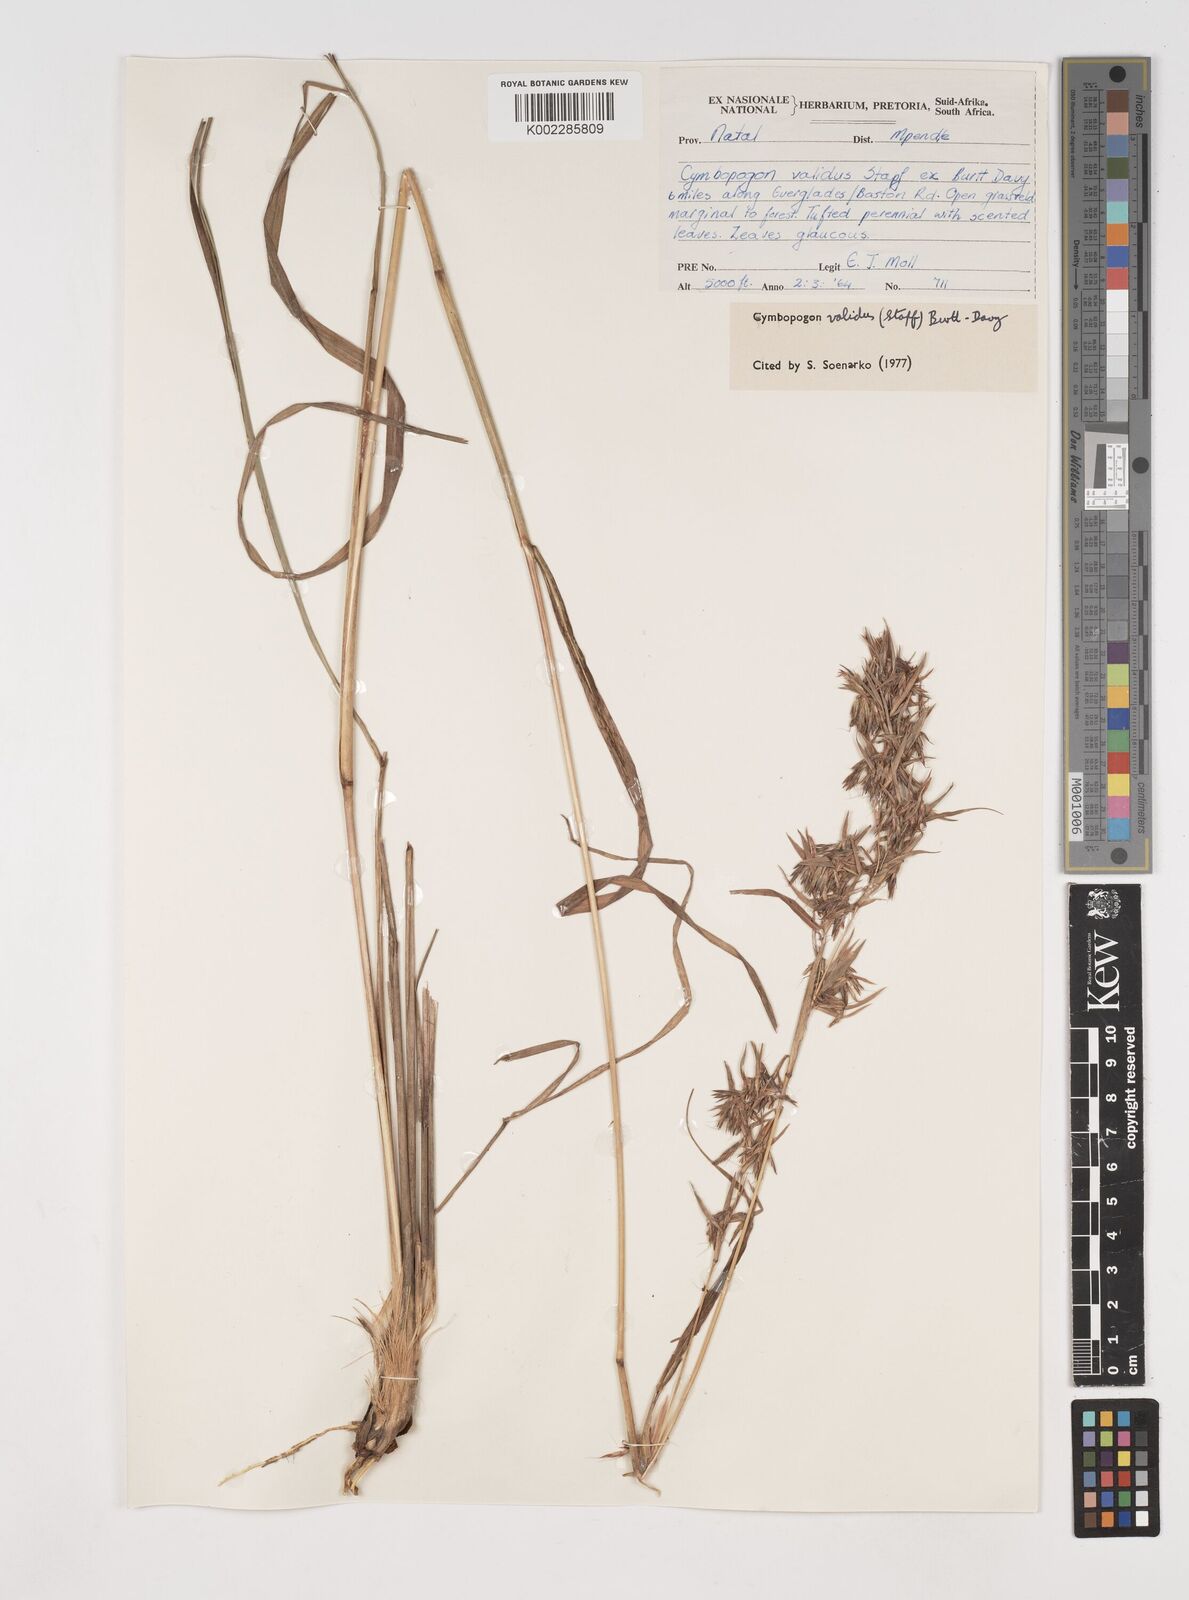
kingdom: Plantae
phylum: Tracheophyta
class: Liliopsida
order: Poales
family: Poaceae
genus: Cymbopogon
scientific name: Cymbopogon nardus
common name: Giant turpentine grass
